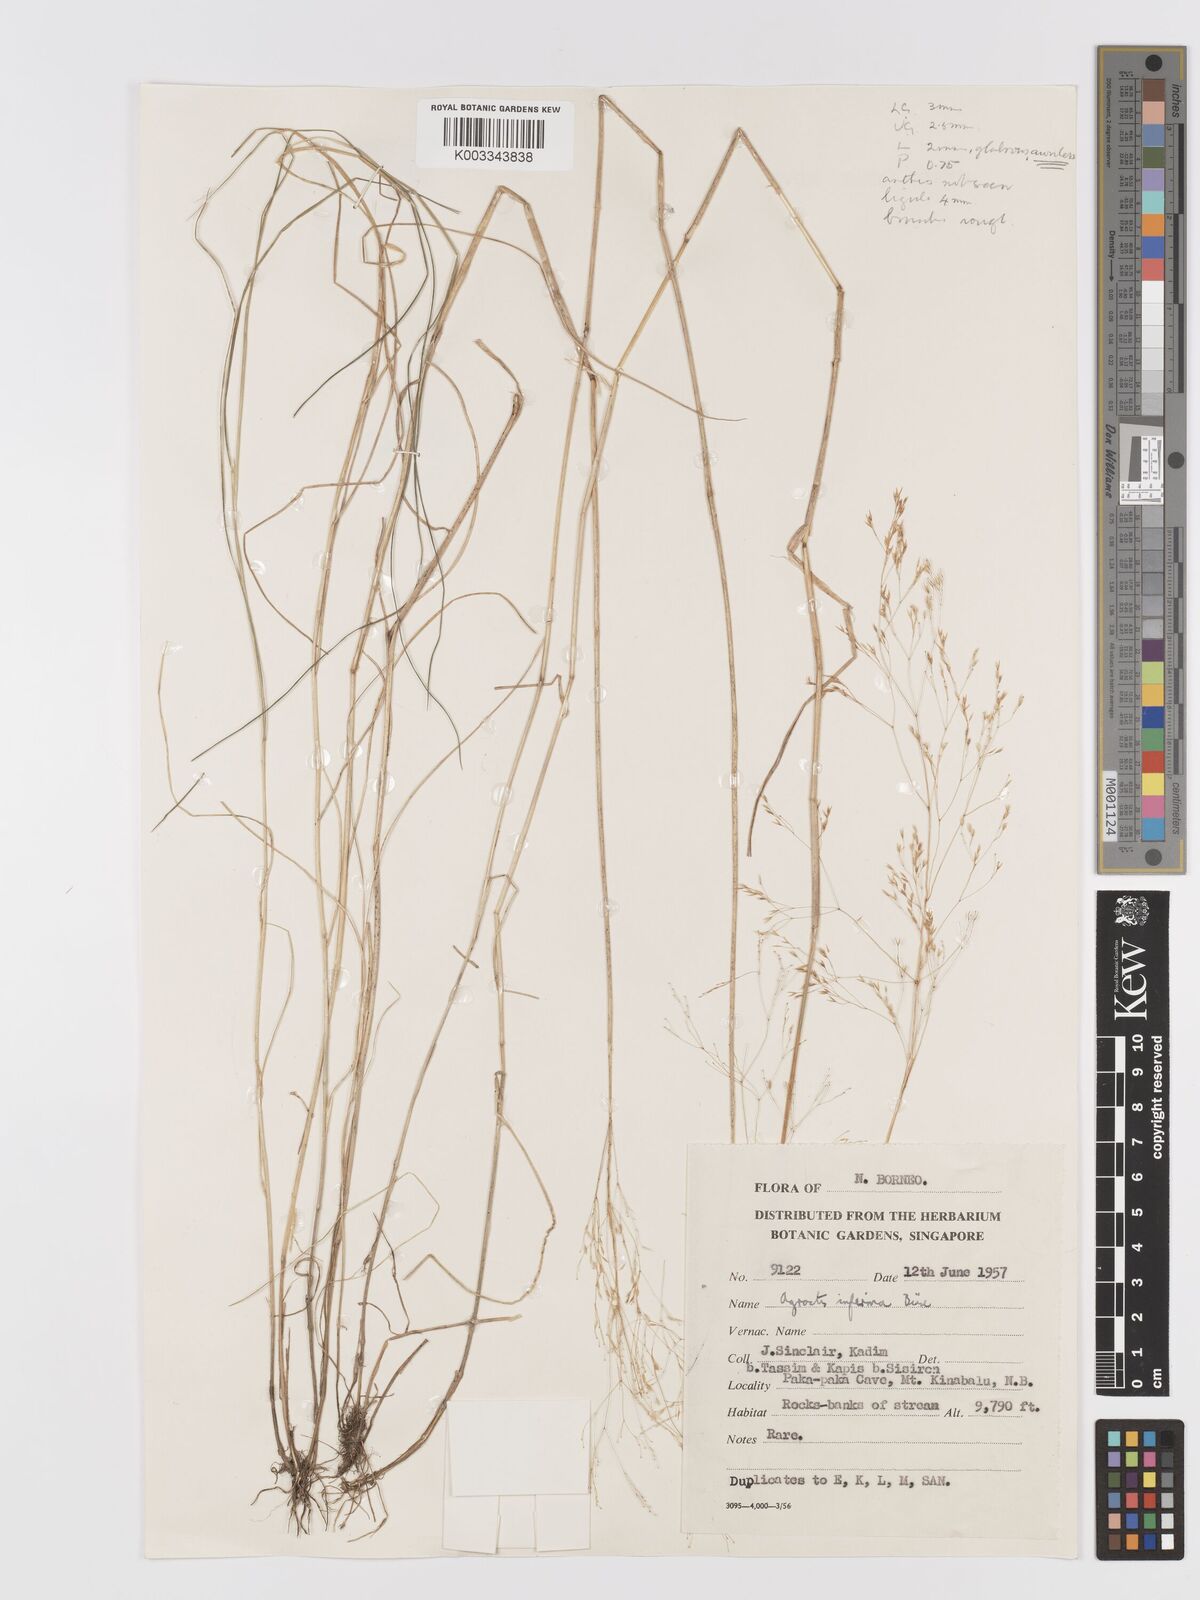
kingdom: Plantae
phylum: Tracheophyta
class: Liliopsida
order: Poales
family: Poaceae
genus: Agrostis
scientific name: Agrostis infirma
